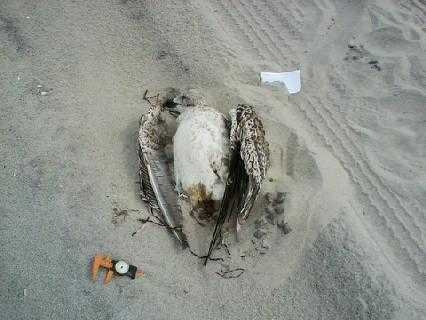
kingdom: Animalia
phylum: Chordata
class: Aves
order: Charadriiformes
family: Laridae
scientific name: Laridae
